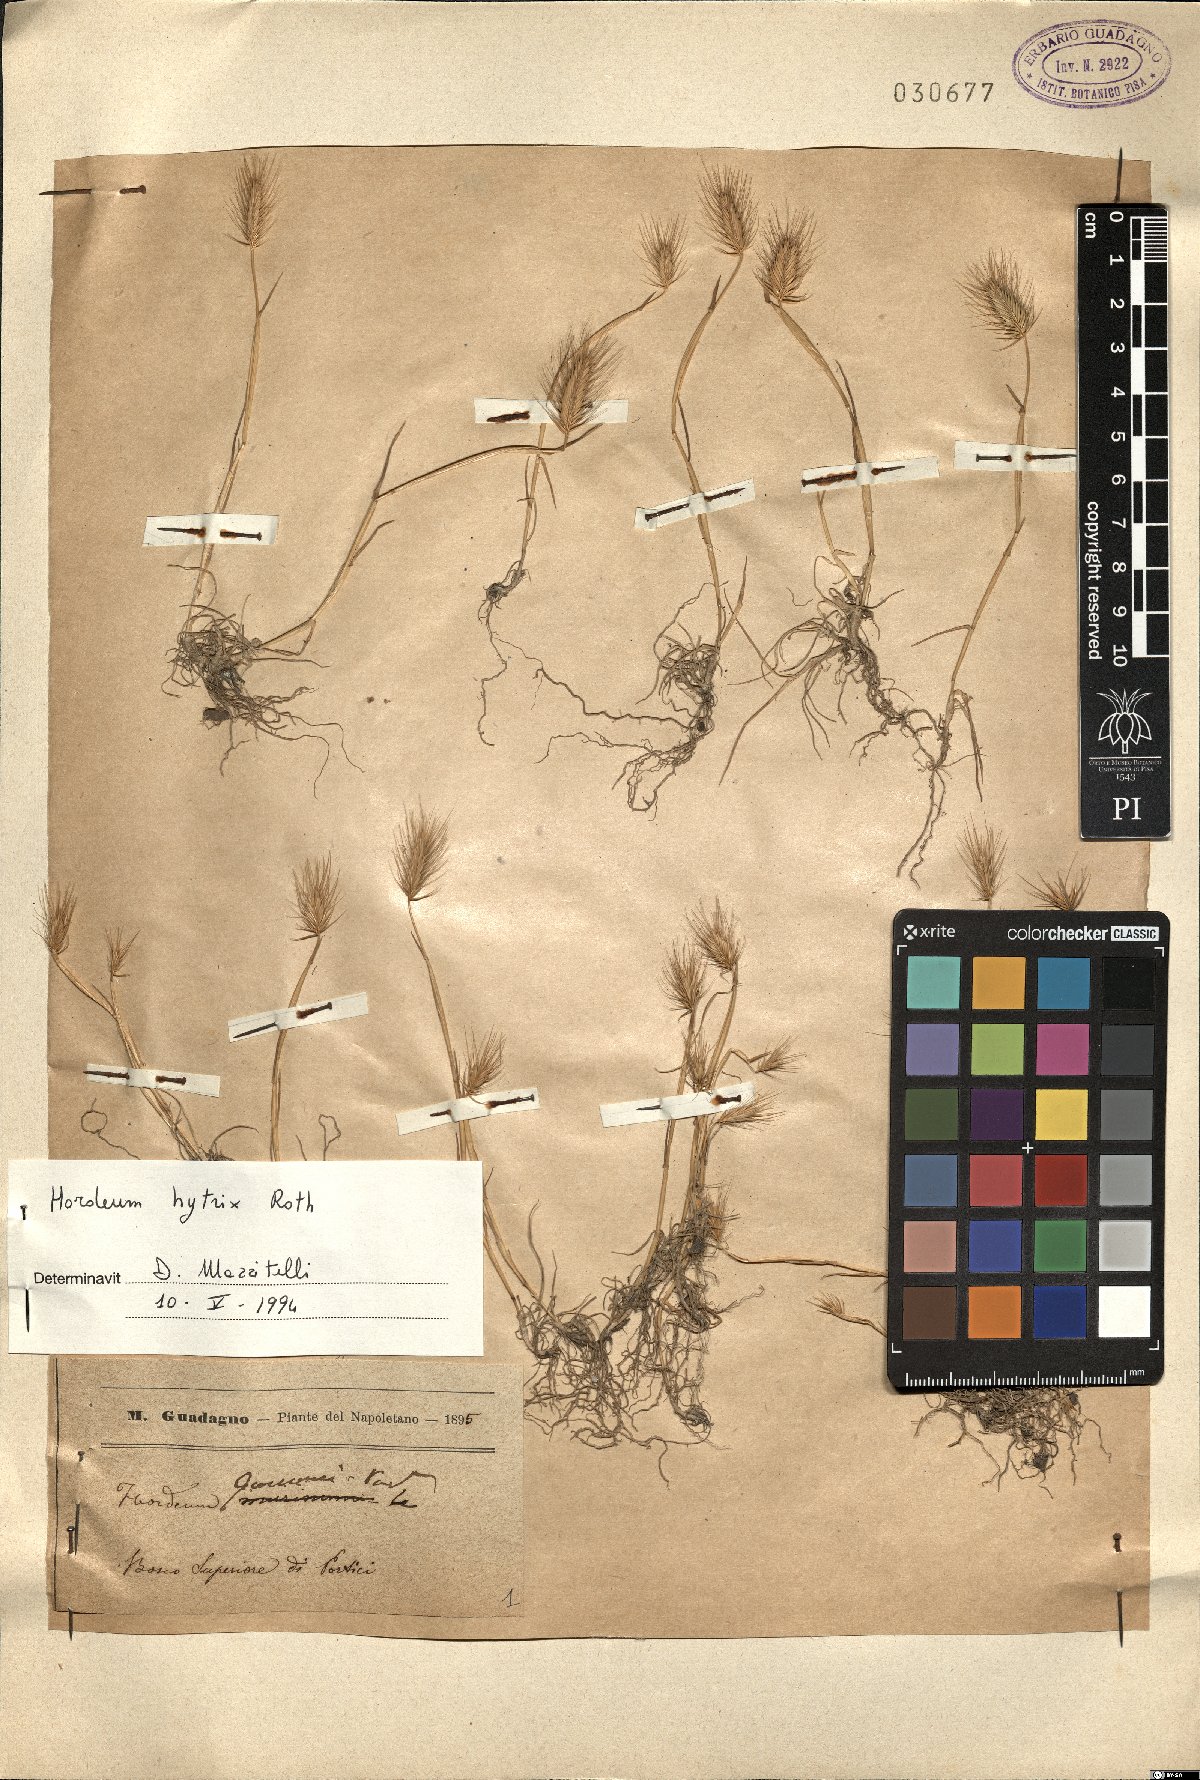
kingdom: Plantae
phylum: Tracheophyta
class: Liliopsida
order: Poales
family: Poaceae
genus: Hordeum
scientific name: Hordeum marinum
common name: Sea barley
